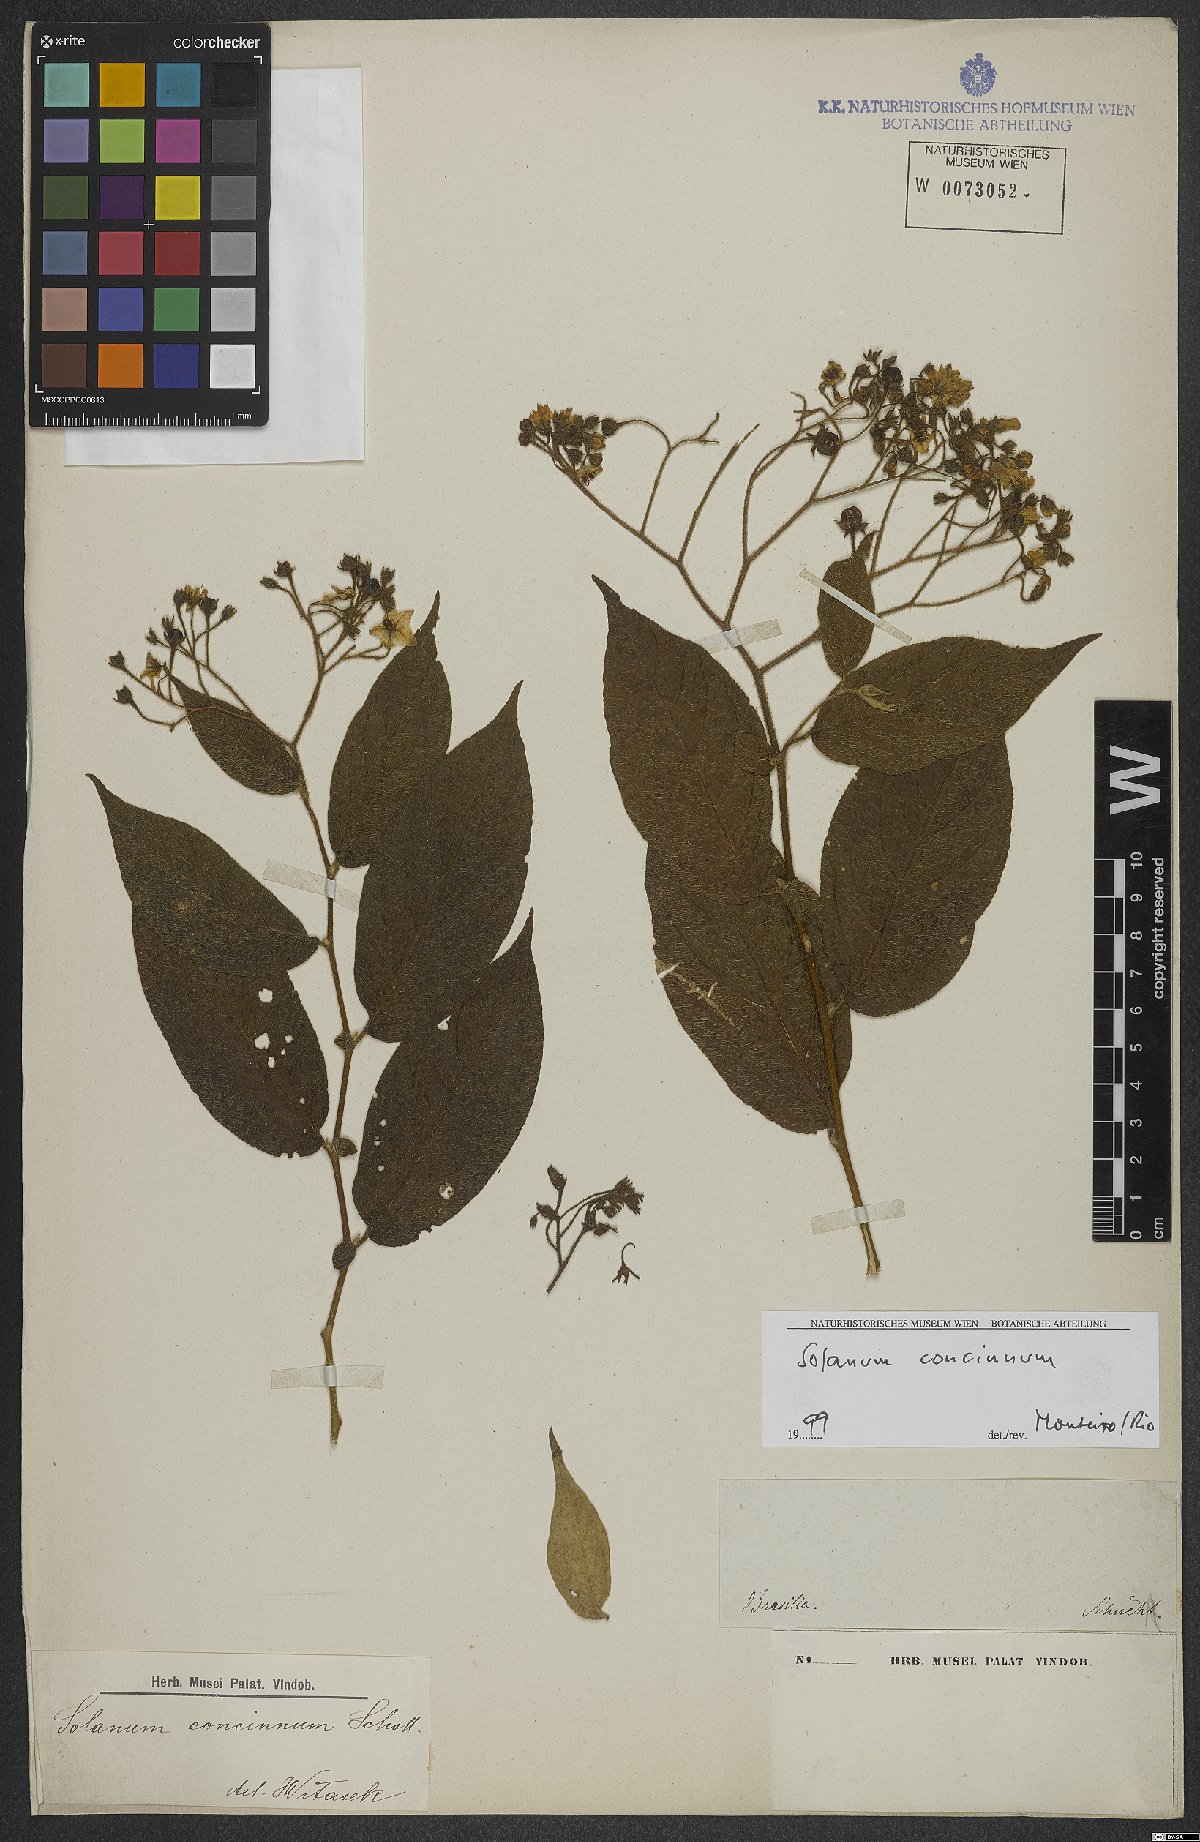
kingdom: Plantae
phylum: Tracheophyta
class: Magnoliopsida
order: Solanales
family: Solanaceae
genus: Solanum
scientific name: Solanum concinnum
